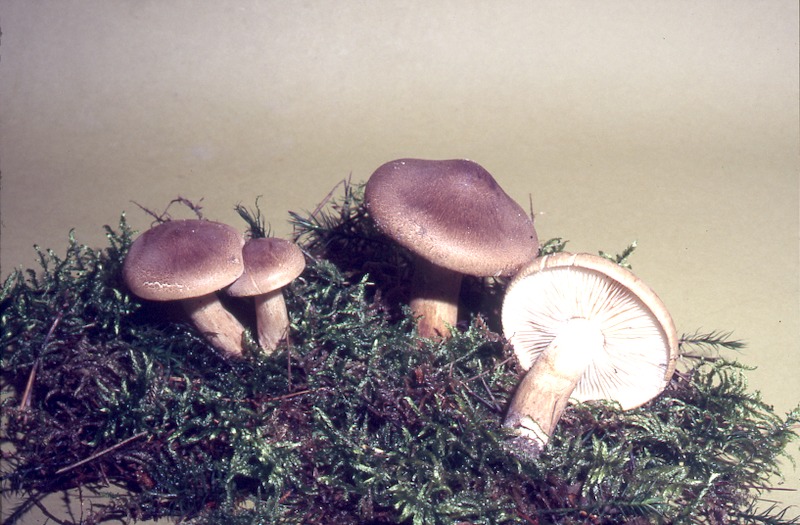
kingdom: Fungi
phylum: Basidiomycota
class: Agaricomycetes
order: Agaricales
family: Tricholomataceae
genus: Tricholoma
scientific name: Tricholoma imbricatum
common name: Matt knight
